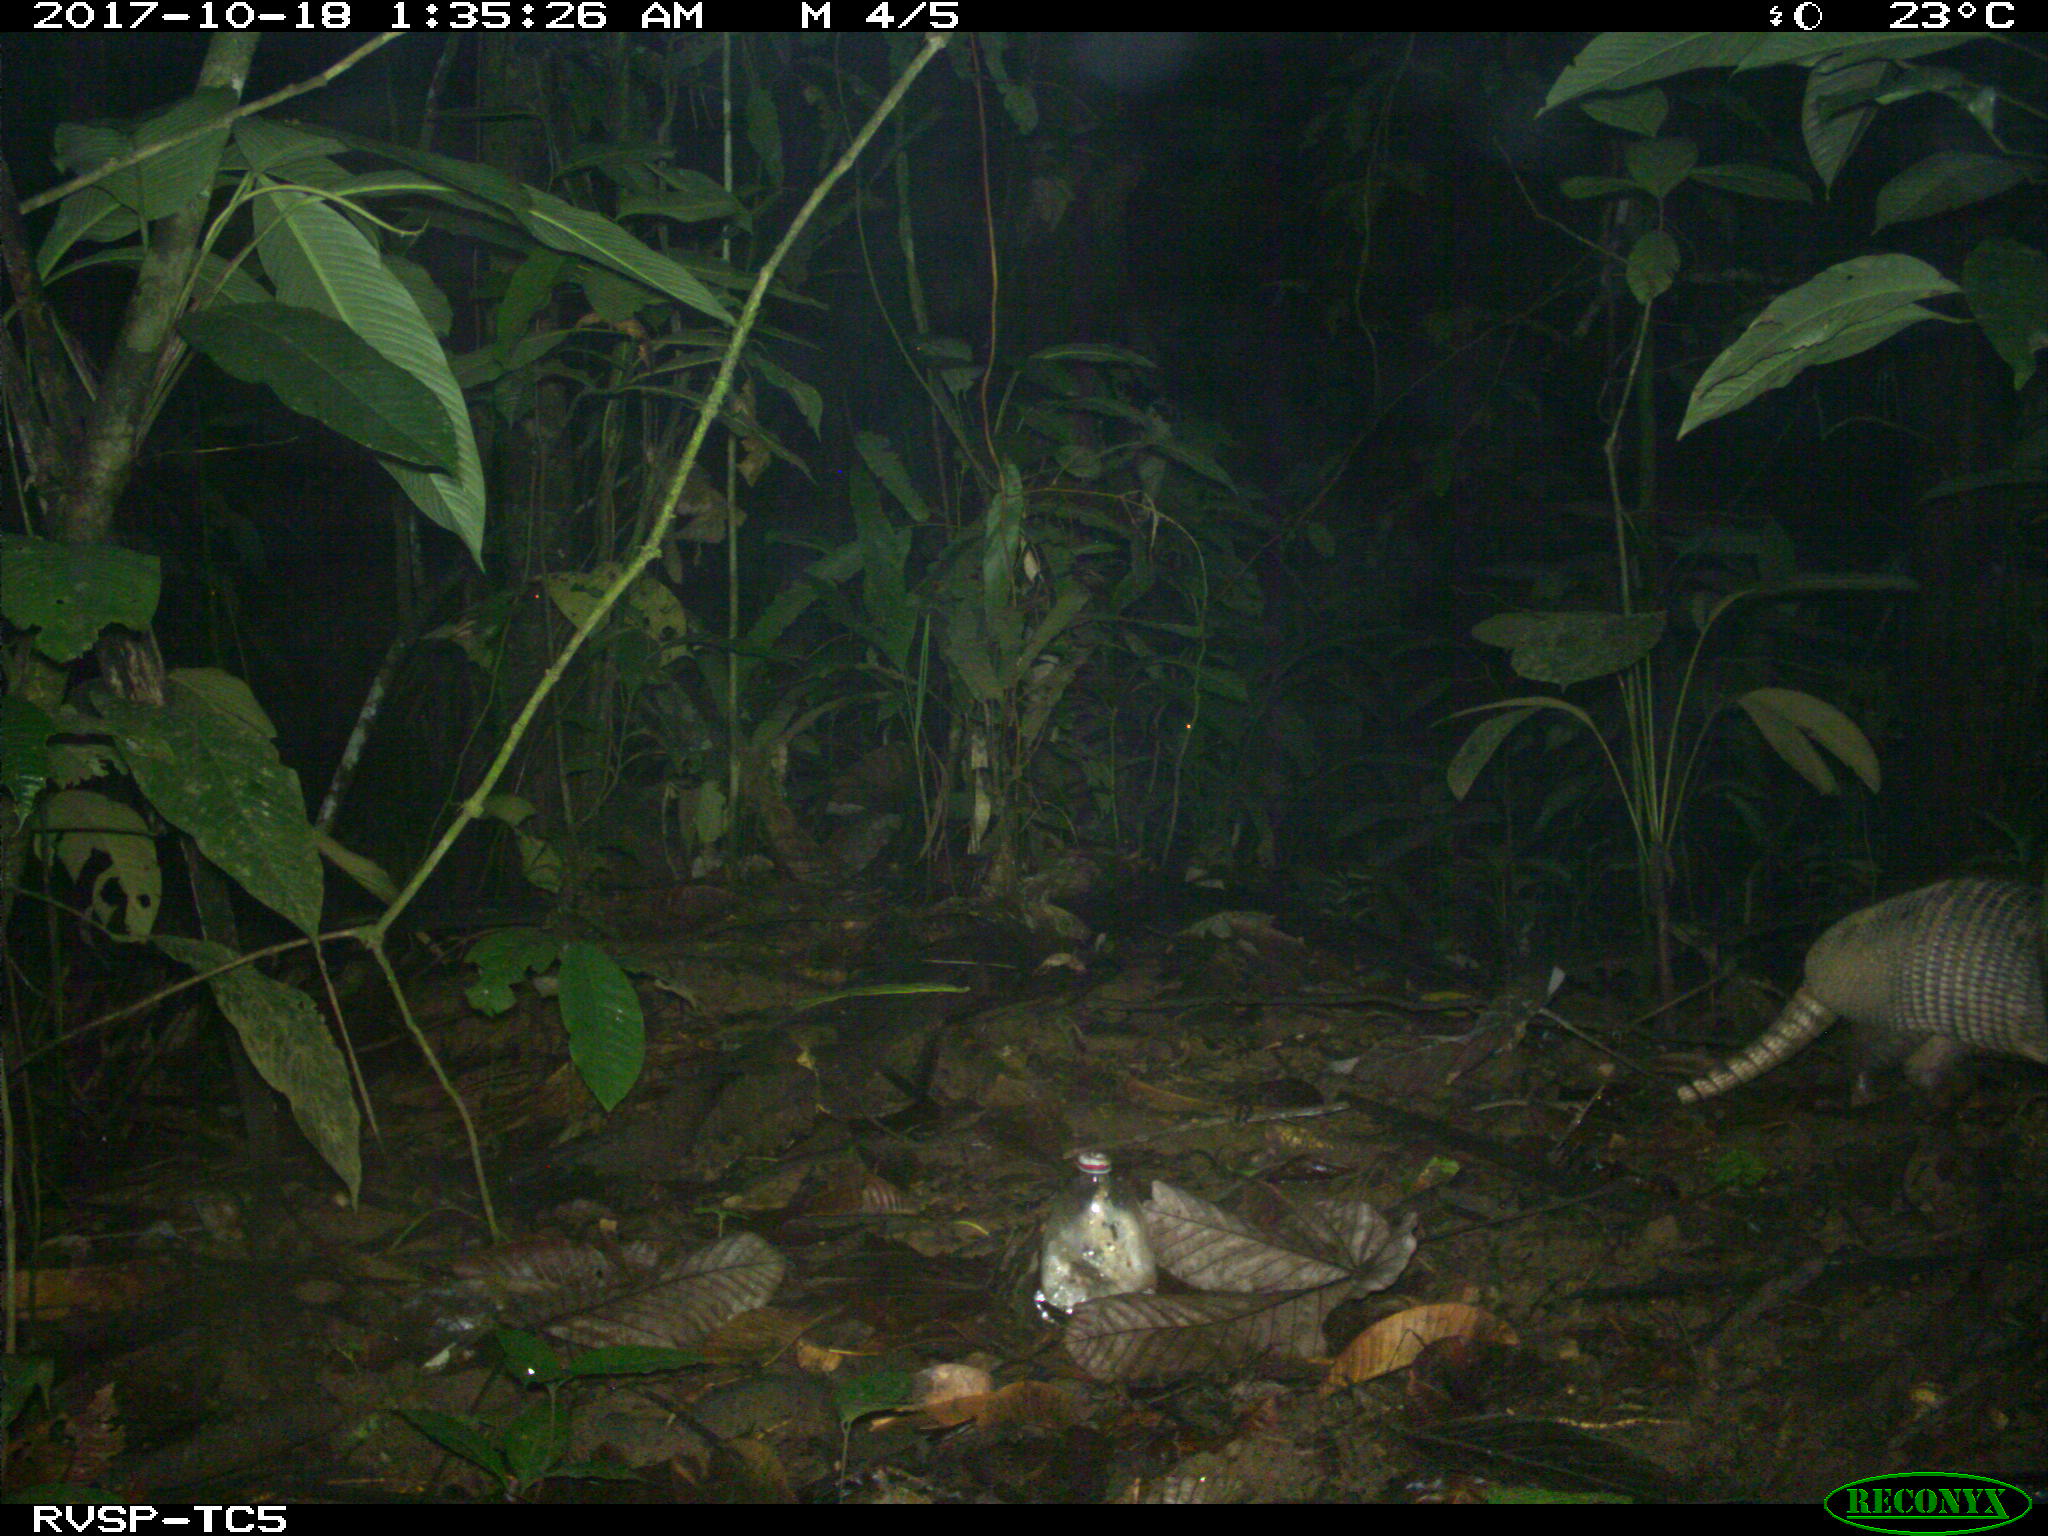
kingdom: Animalia
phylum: Chordata
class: Mammalia
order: Cingulata
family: Dasypodidae
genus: Dasypus
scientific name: Dasypus novemcinctus
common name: Nine-banded armadillo
